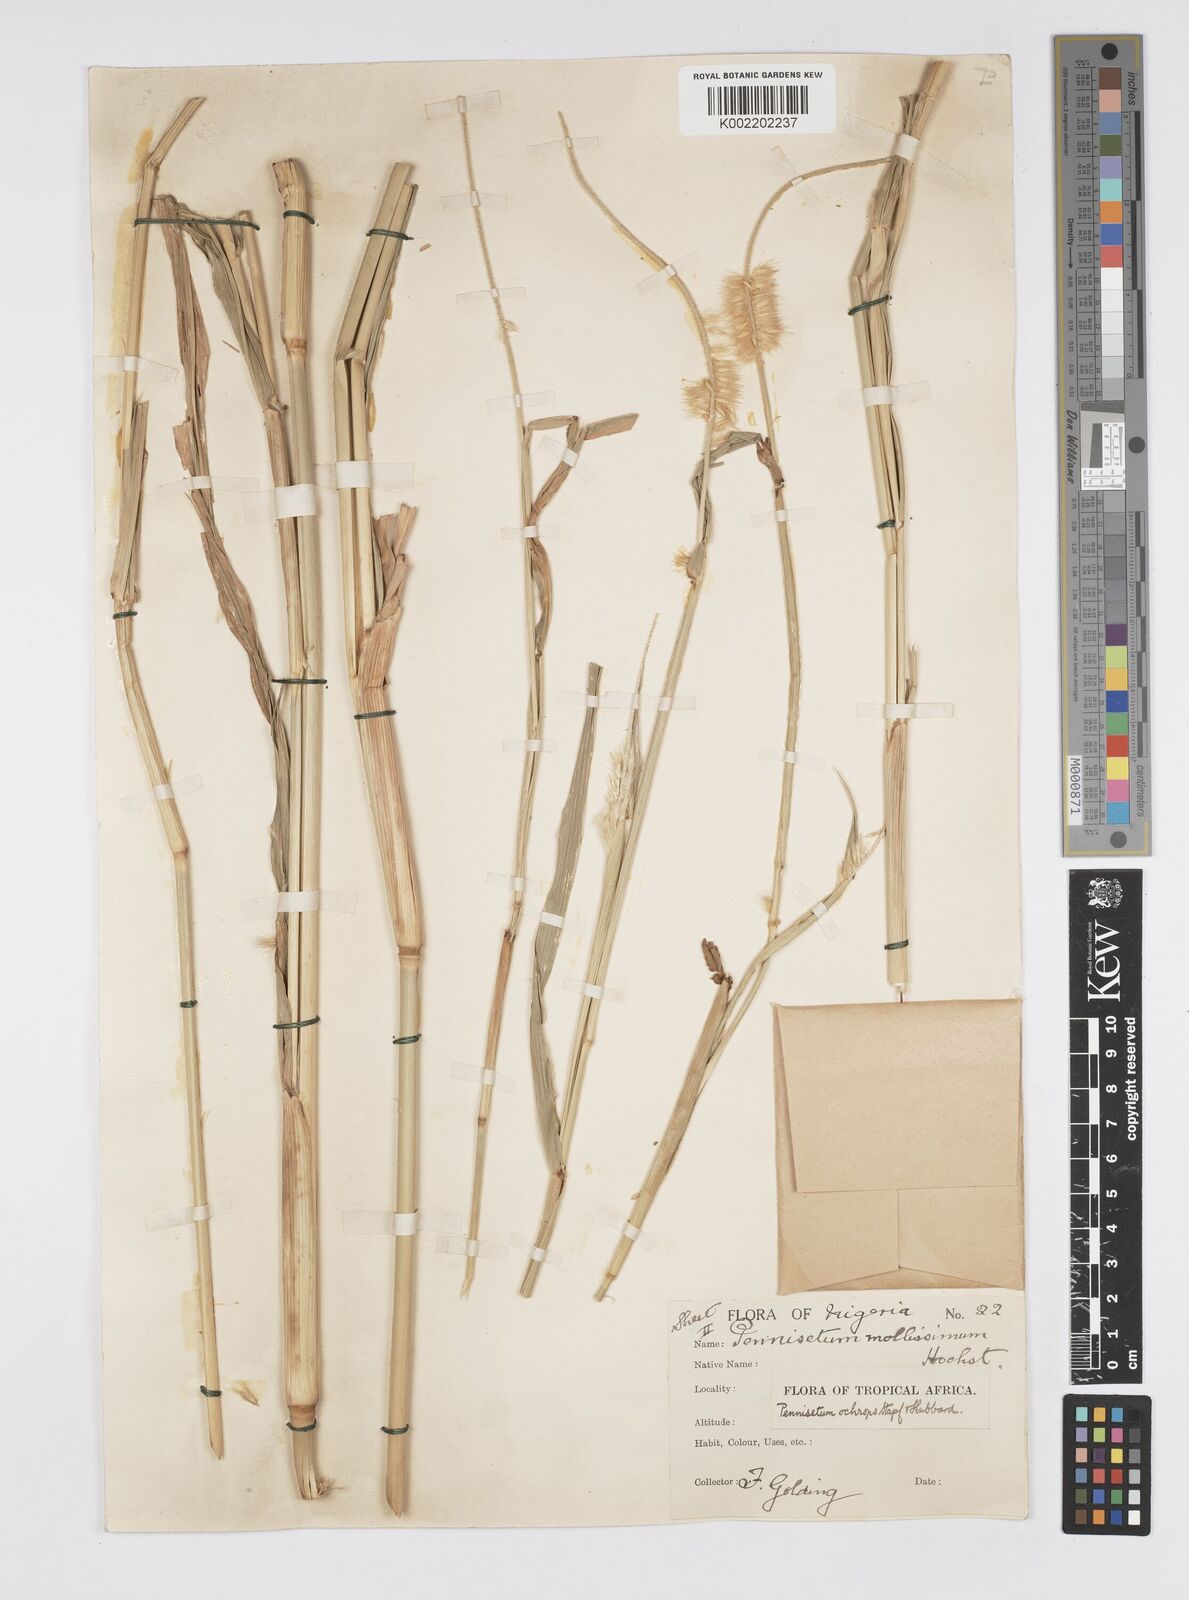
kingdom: Plantae
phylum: Tracheophyta
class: Liliopsida
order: Poales
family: Poaceae
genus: Cenchrus
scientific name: Cenchrus violaceus
